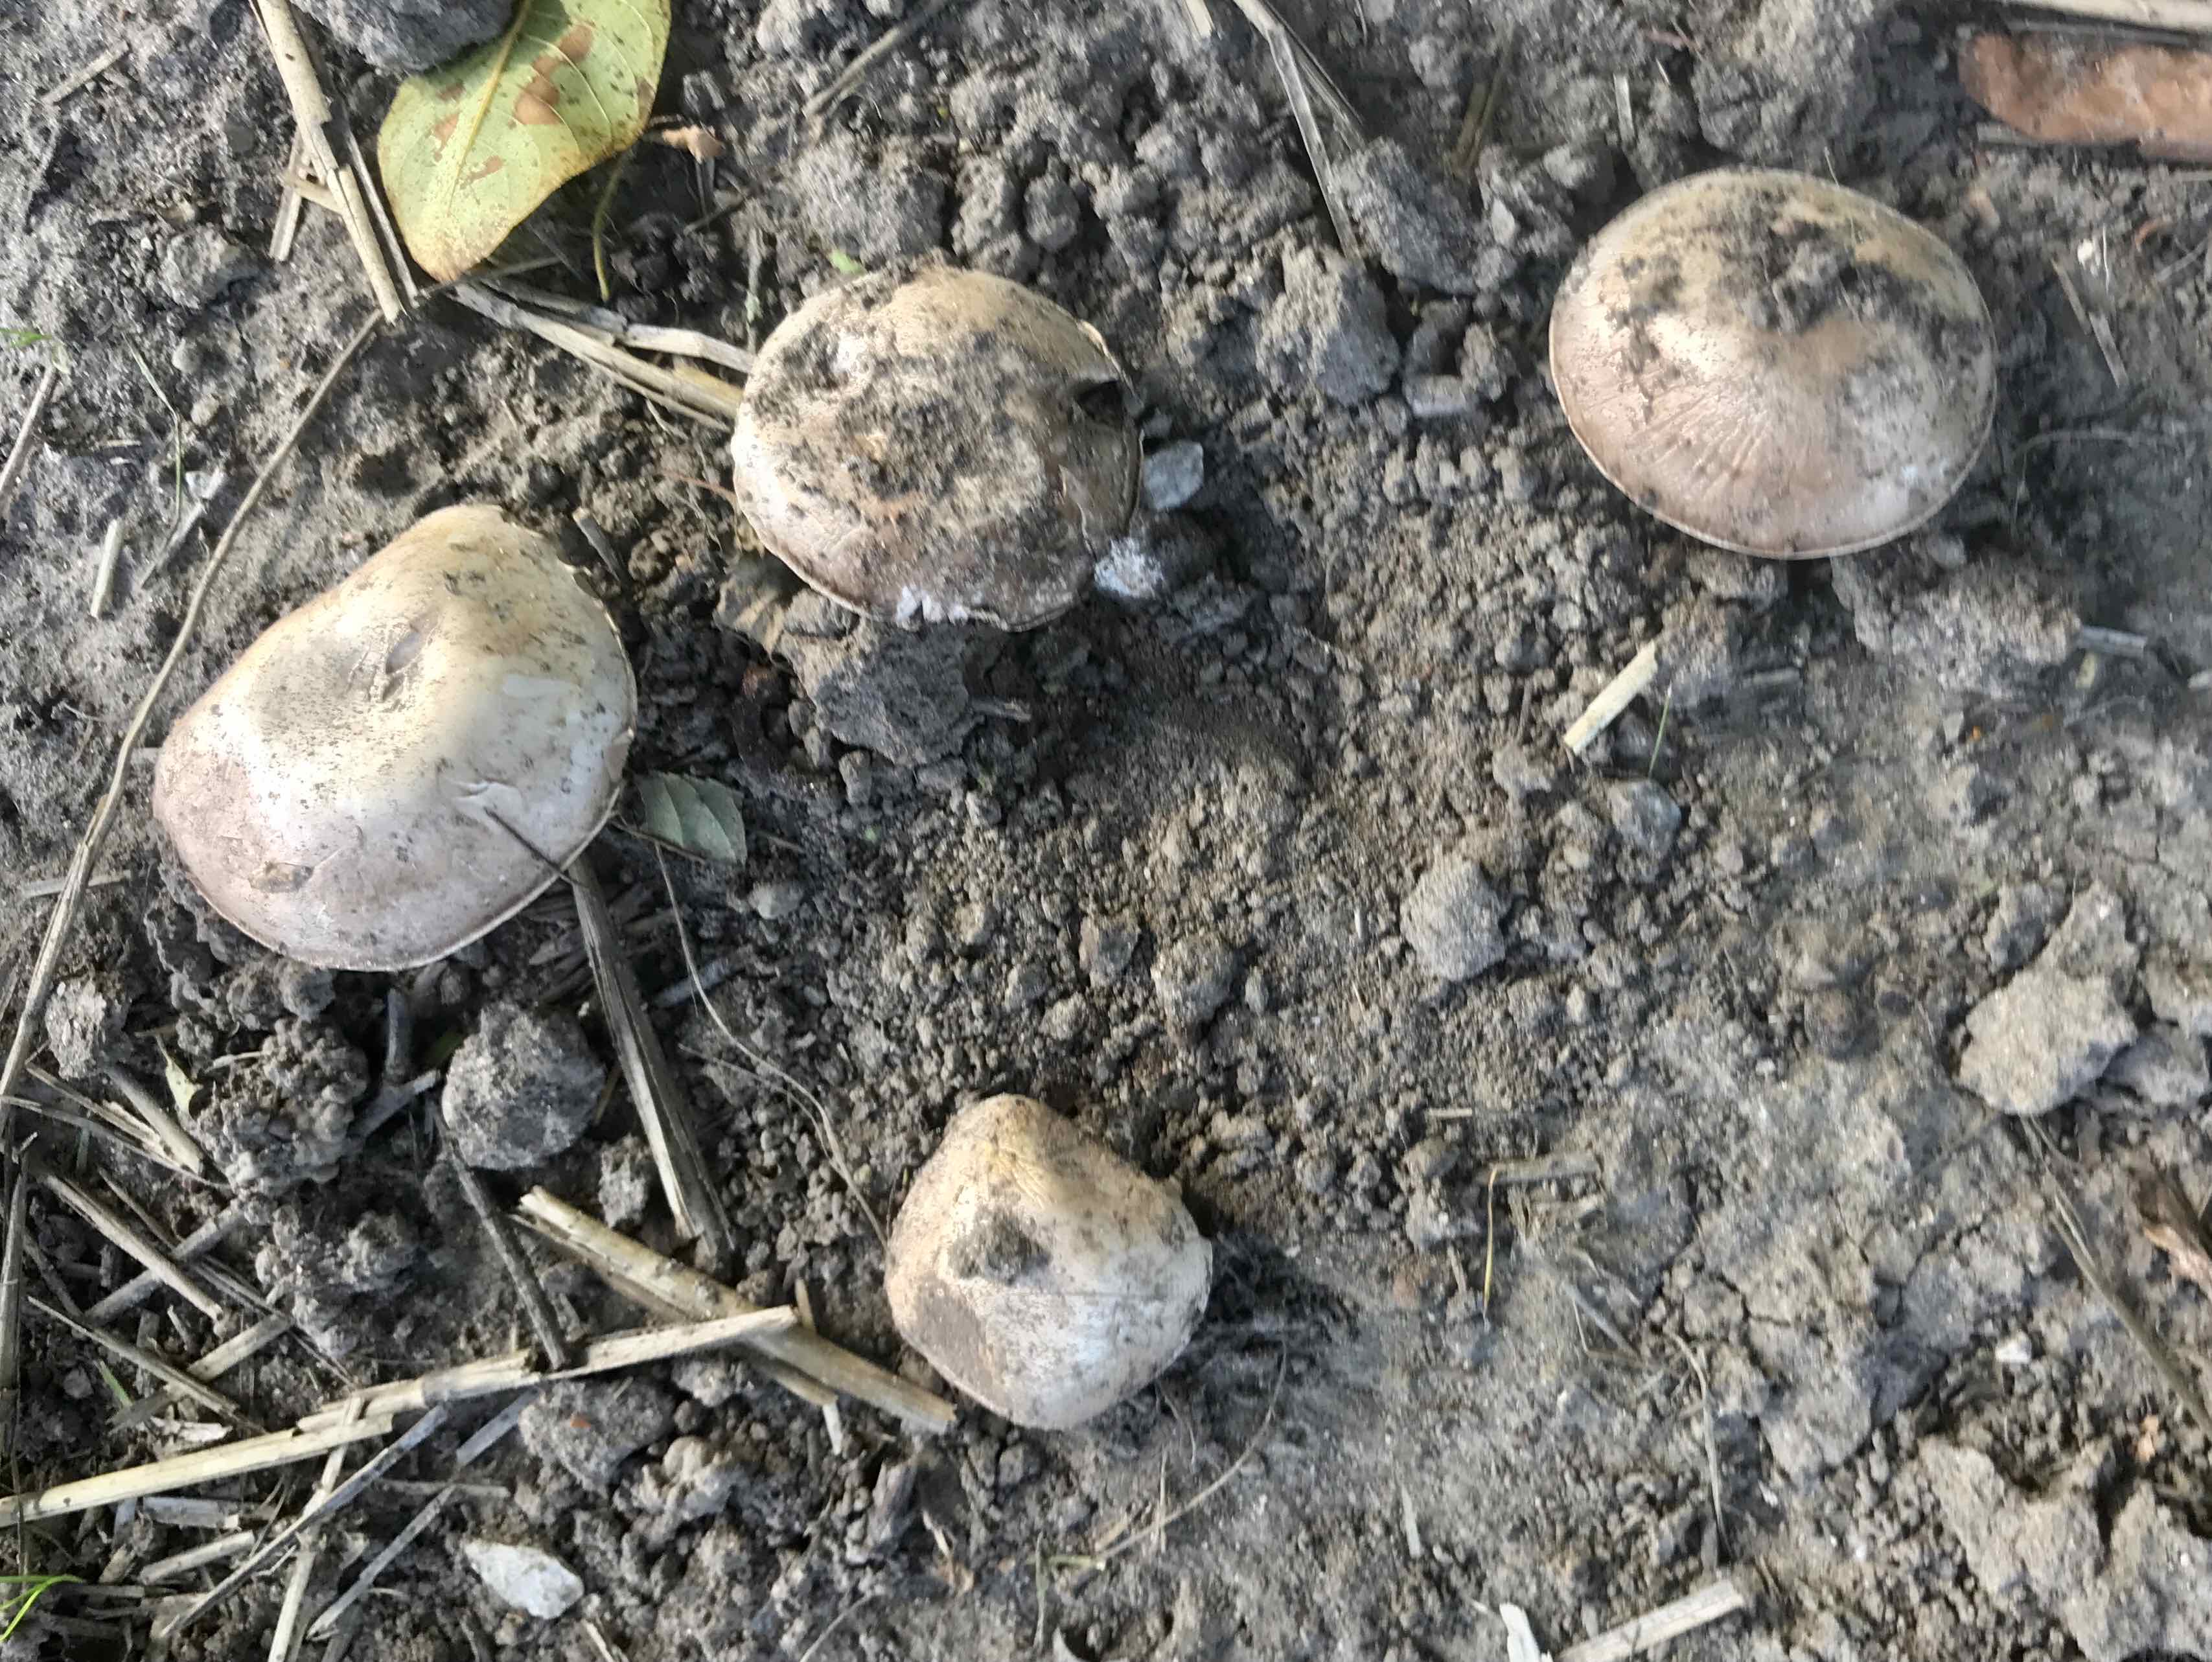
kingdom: Fungi
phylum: Basidiomycota
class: Agaricomycetes
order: Agaricales
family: Agaricaceae
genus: Agaricus
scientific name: Agaricus bitorquis
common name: vej-champignon
